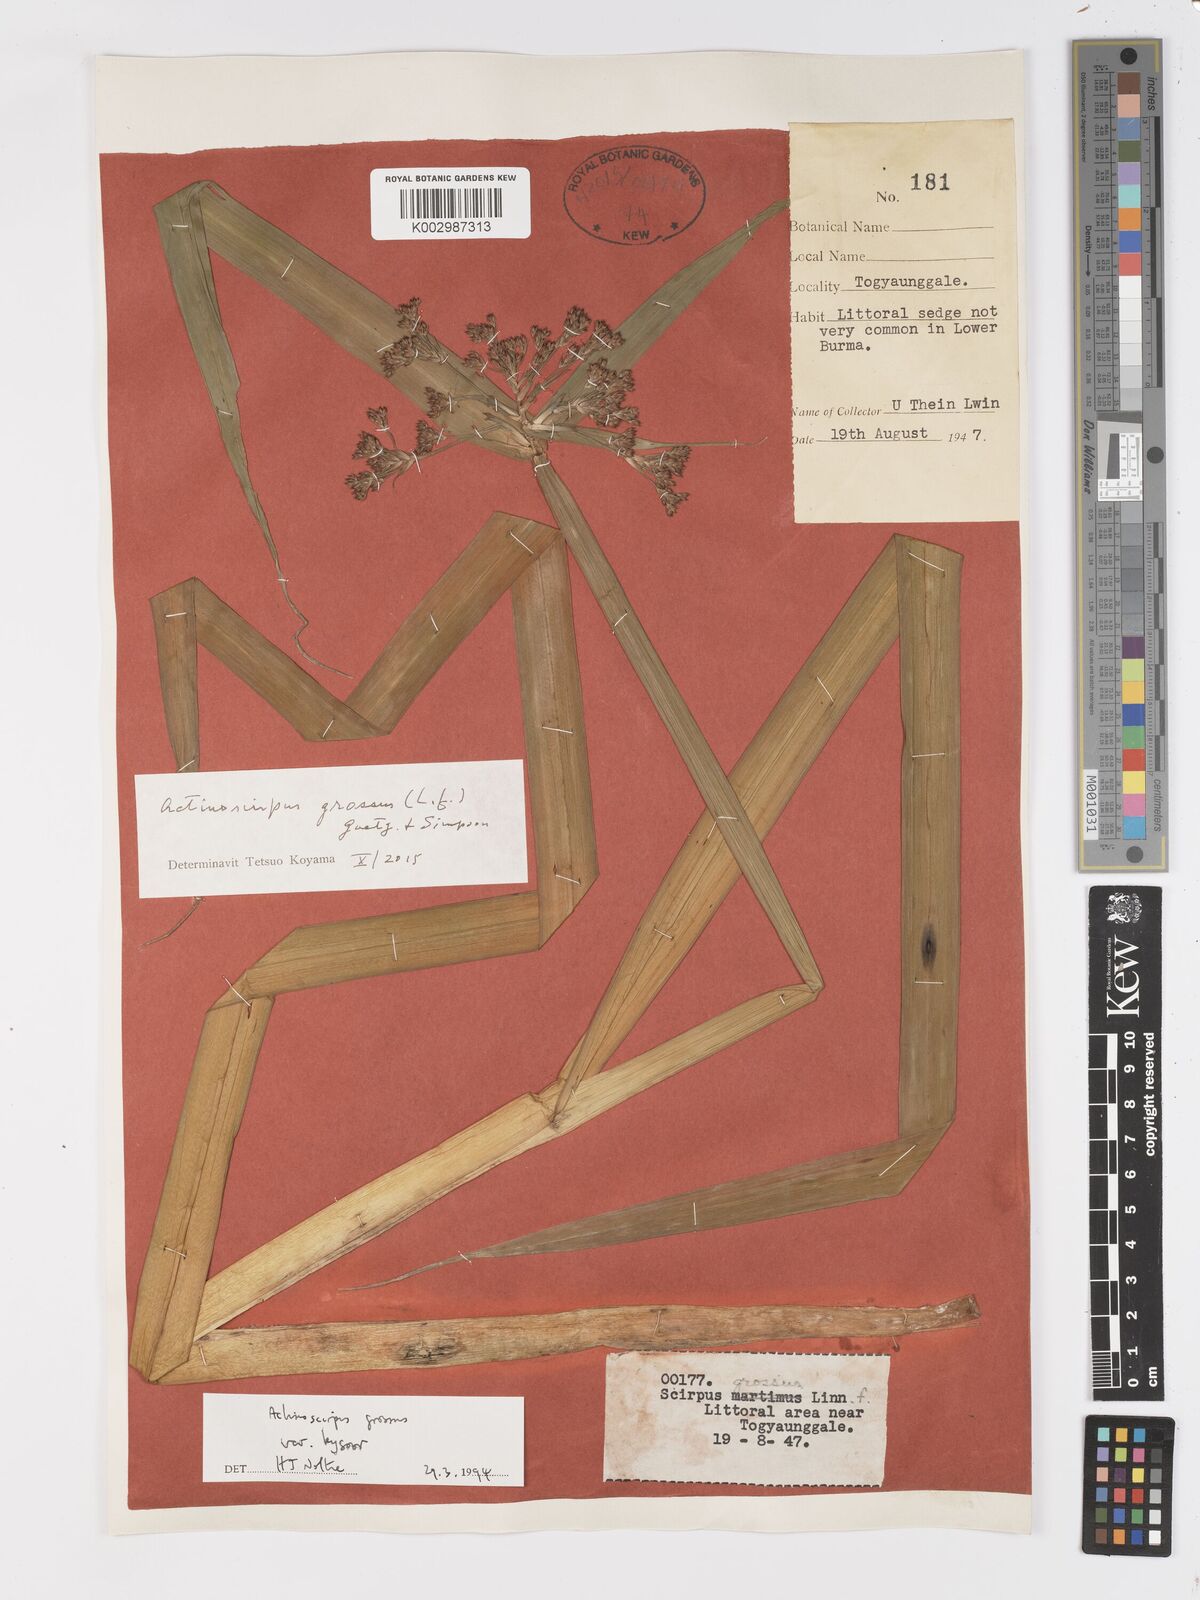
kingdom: Plantae
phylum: Tracheophyta
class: Liliopsida
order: Poales
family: Cyperaceae
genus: Actinoscirpus
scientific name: Actinoscirpus grossus
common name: Giant bur rush
